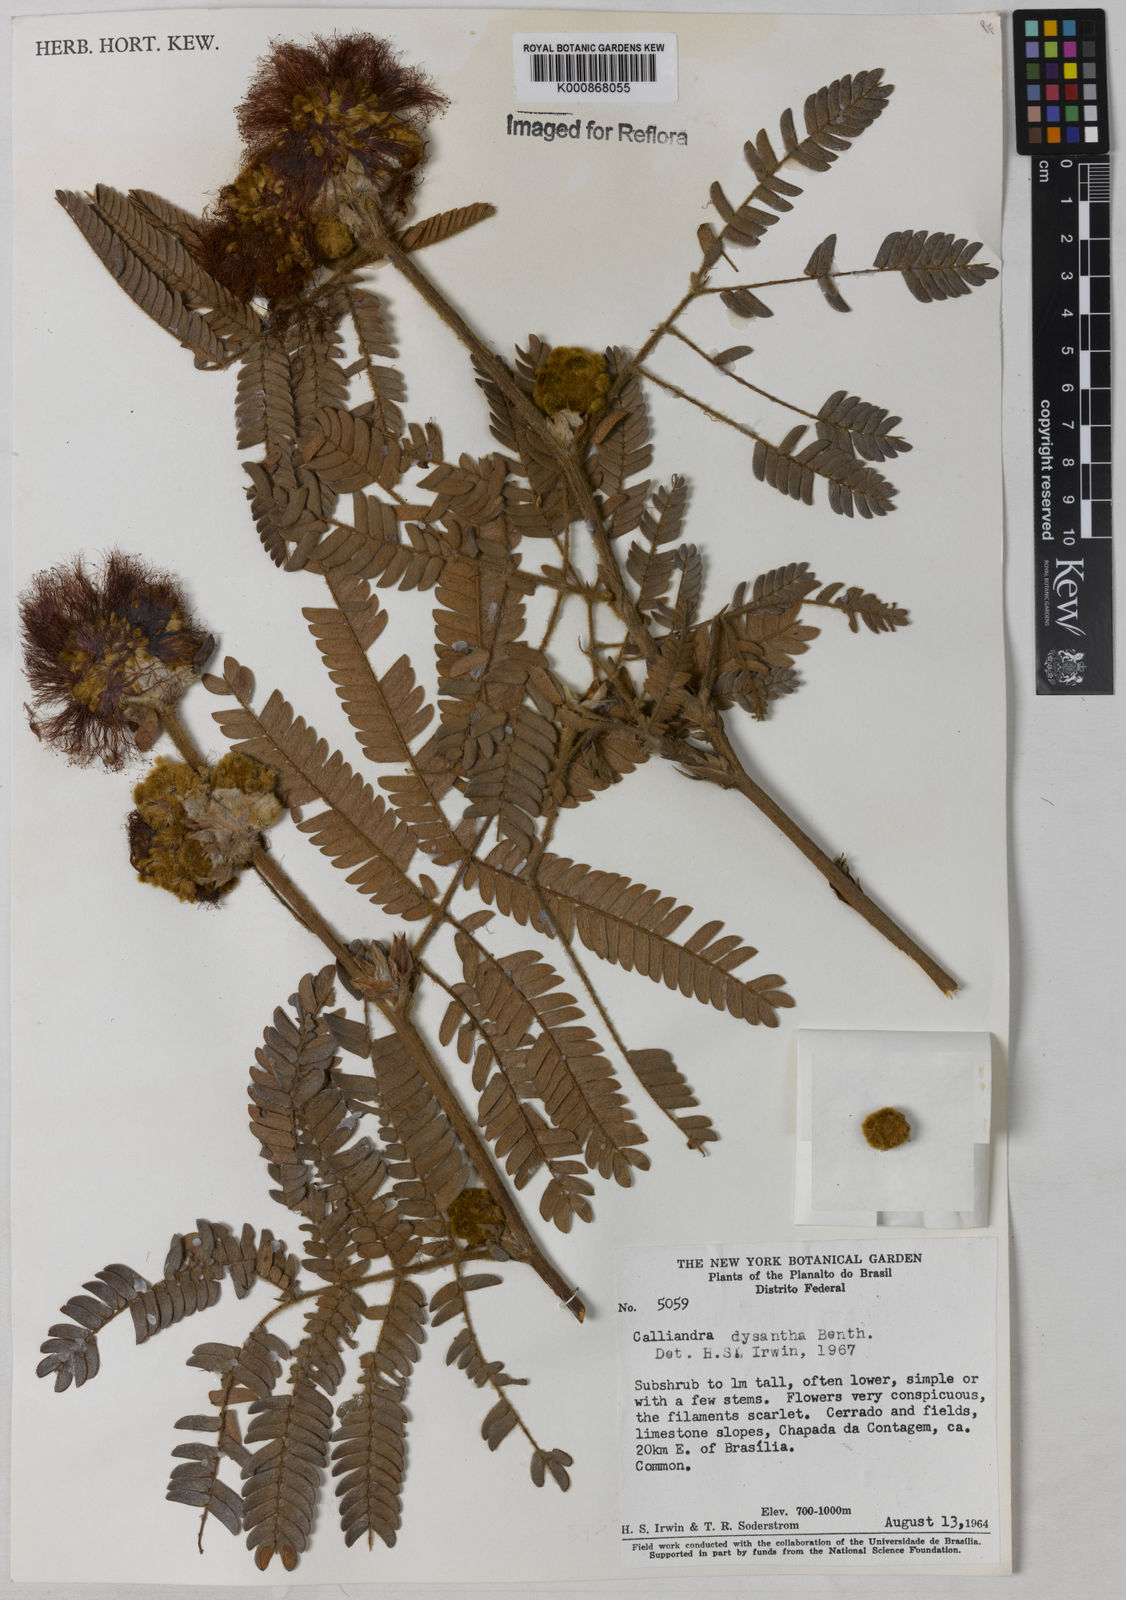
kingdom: Plantae
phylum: Tracheophyta
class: Magnoliopsida
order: Fabales
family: Fabaceae
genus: Calliandra
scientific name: Calliandra dysantha
